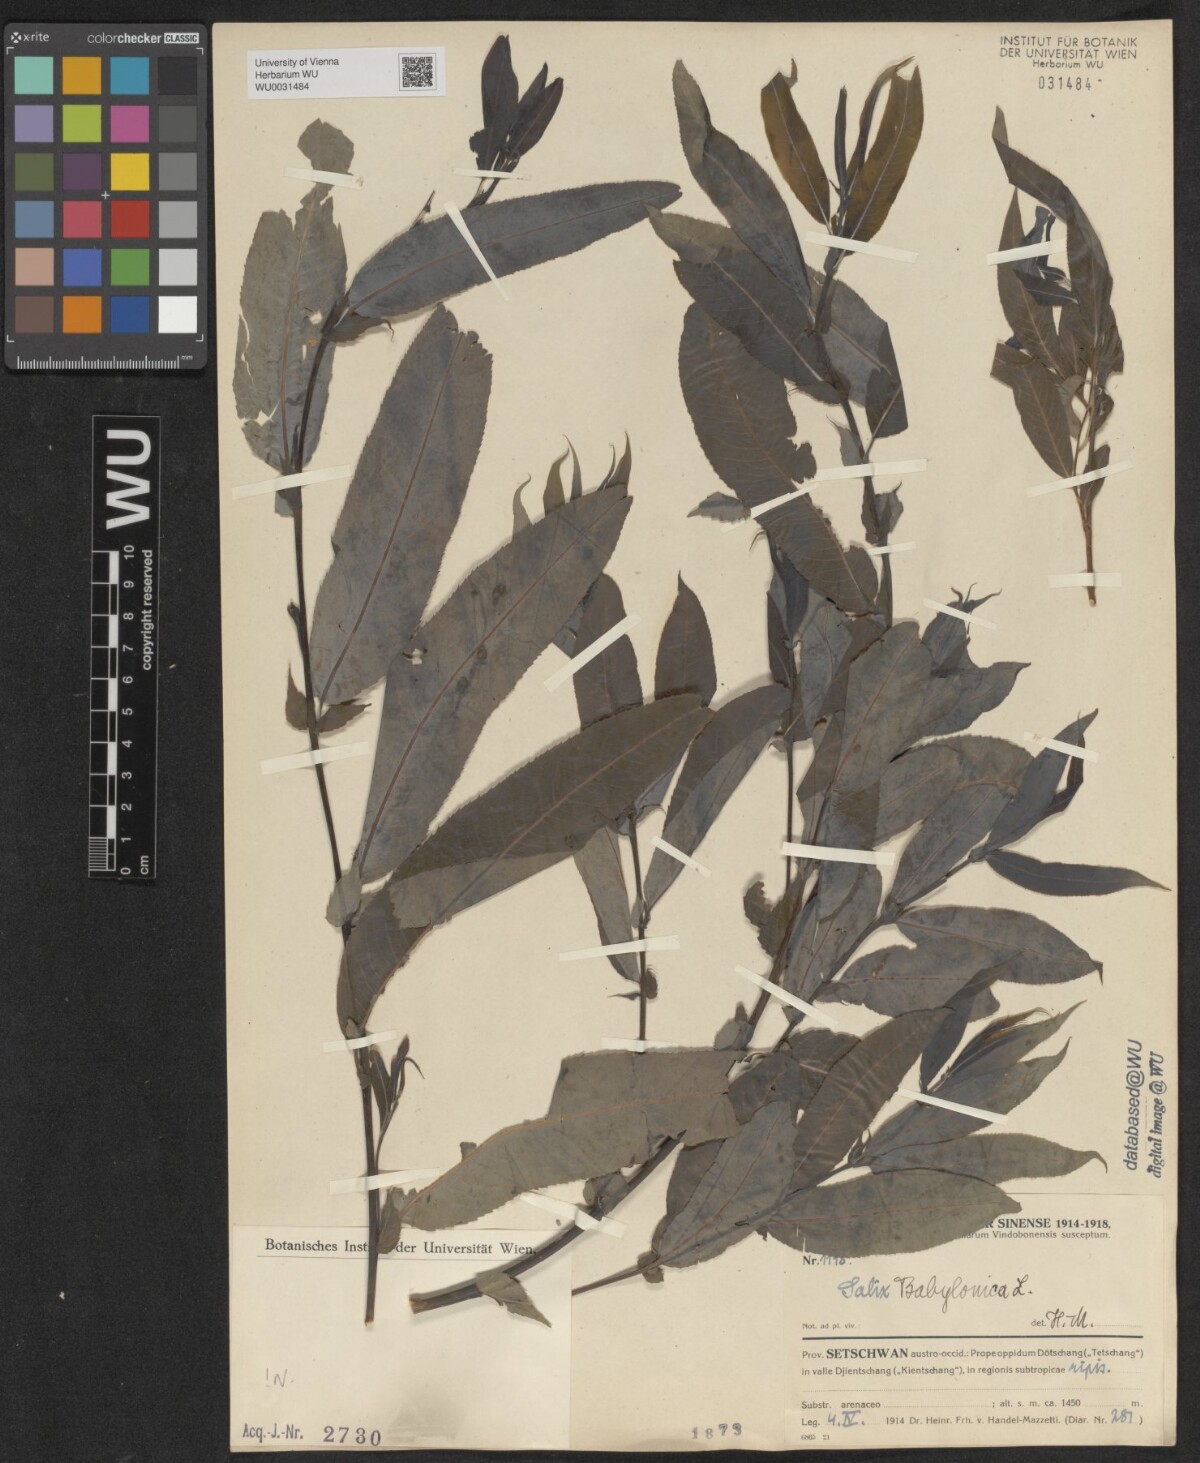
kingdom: Plantae
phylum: Tracheophyta
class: Magnoliopsida
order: Malpighiales
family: Salicaceae
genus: Salix
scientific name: Salix babylonica
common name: Weeping willow
